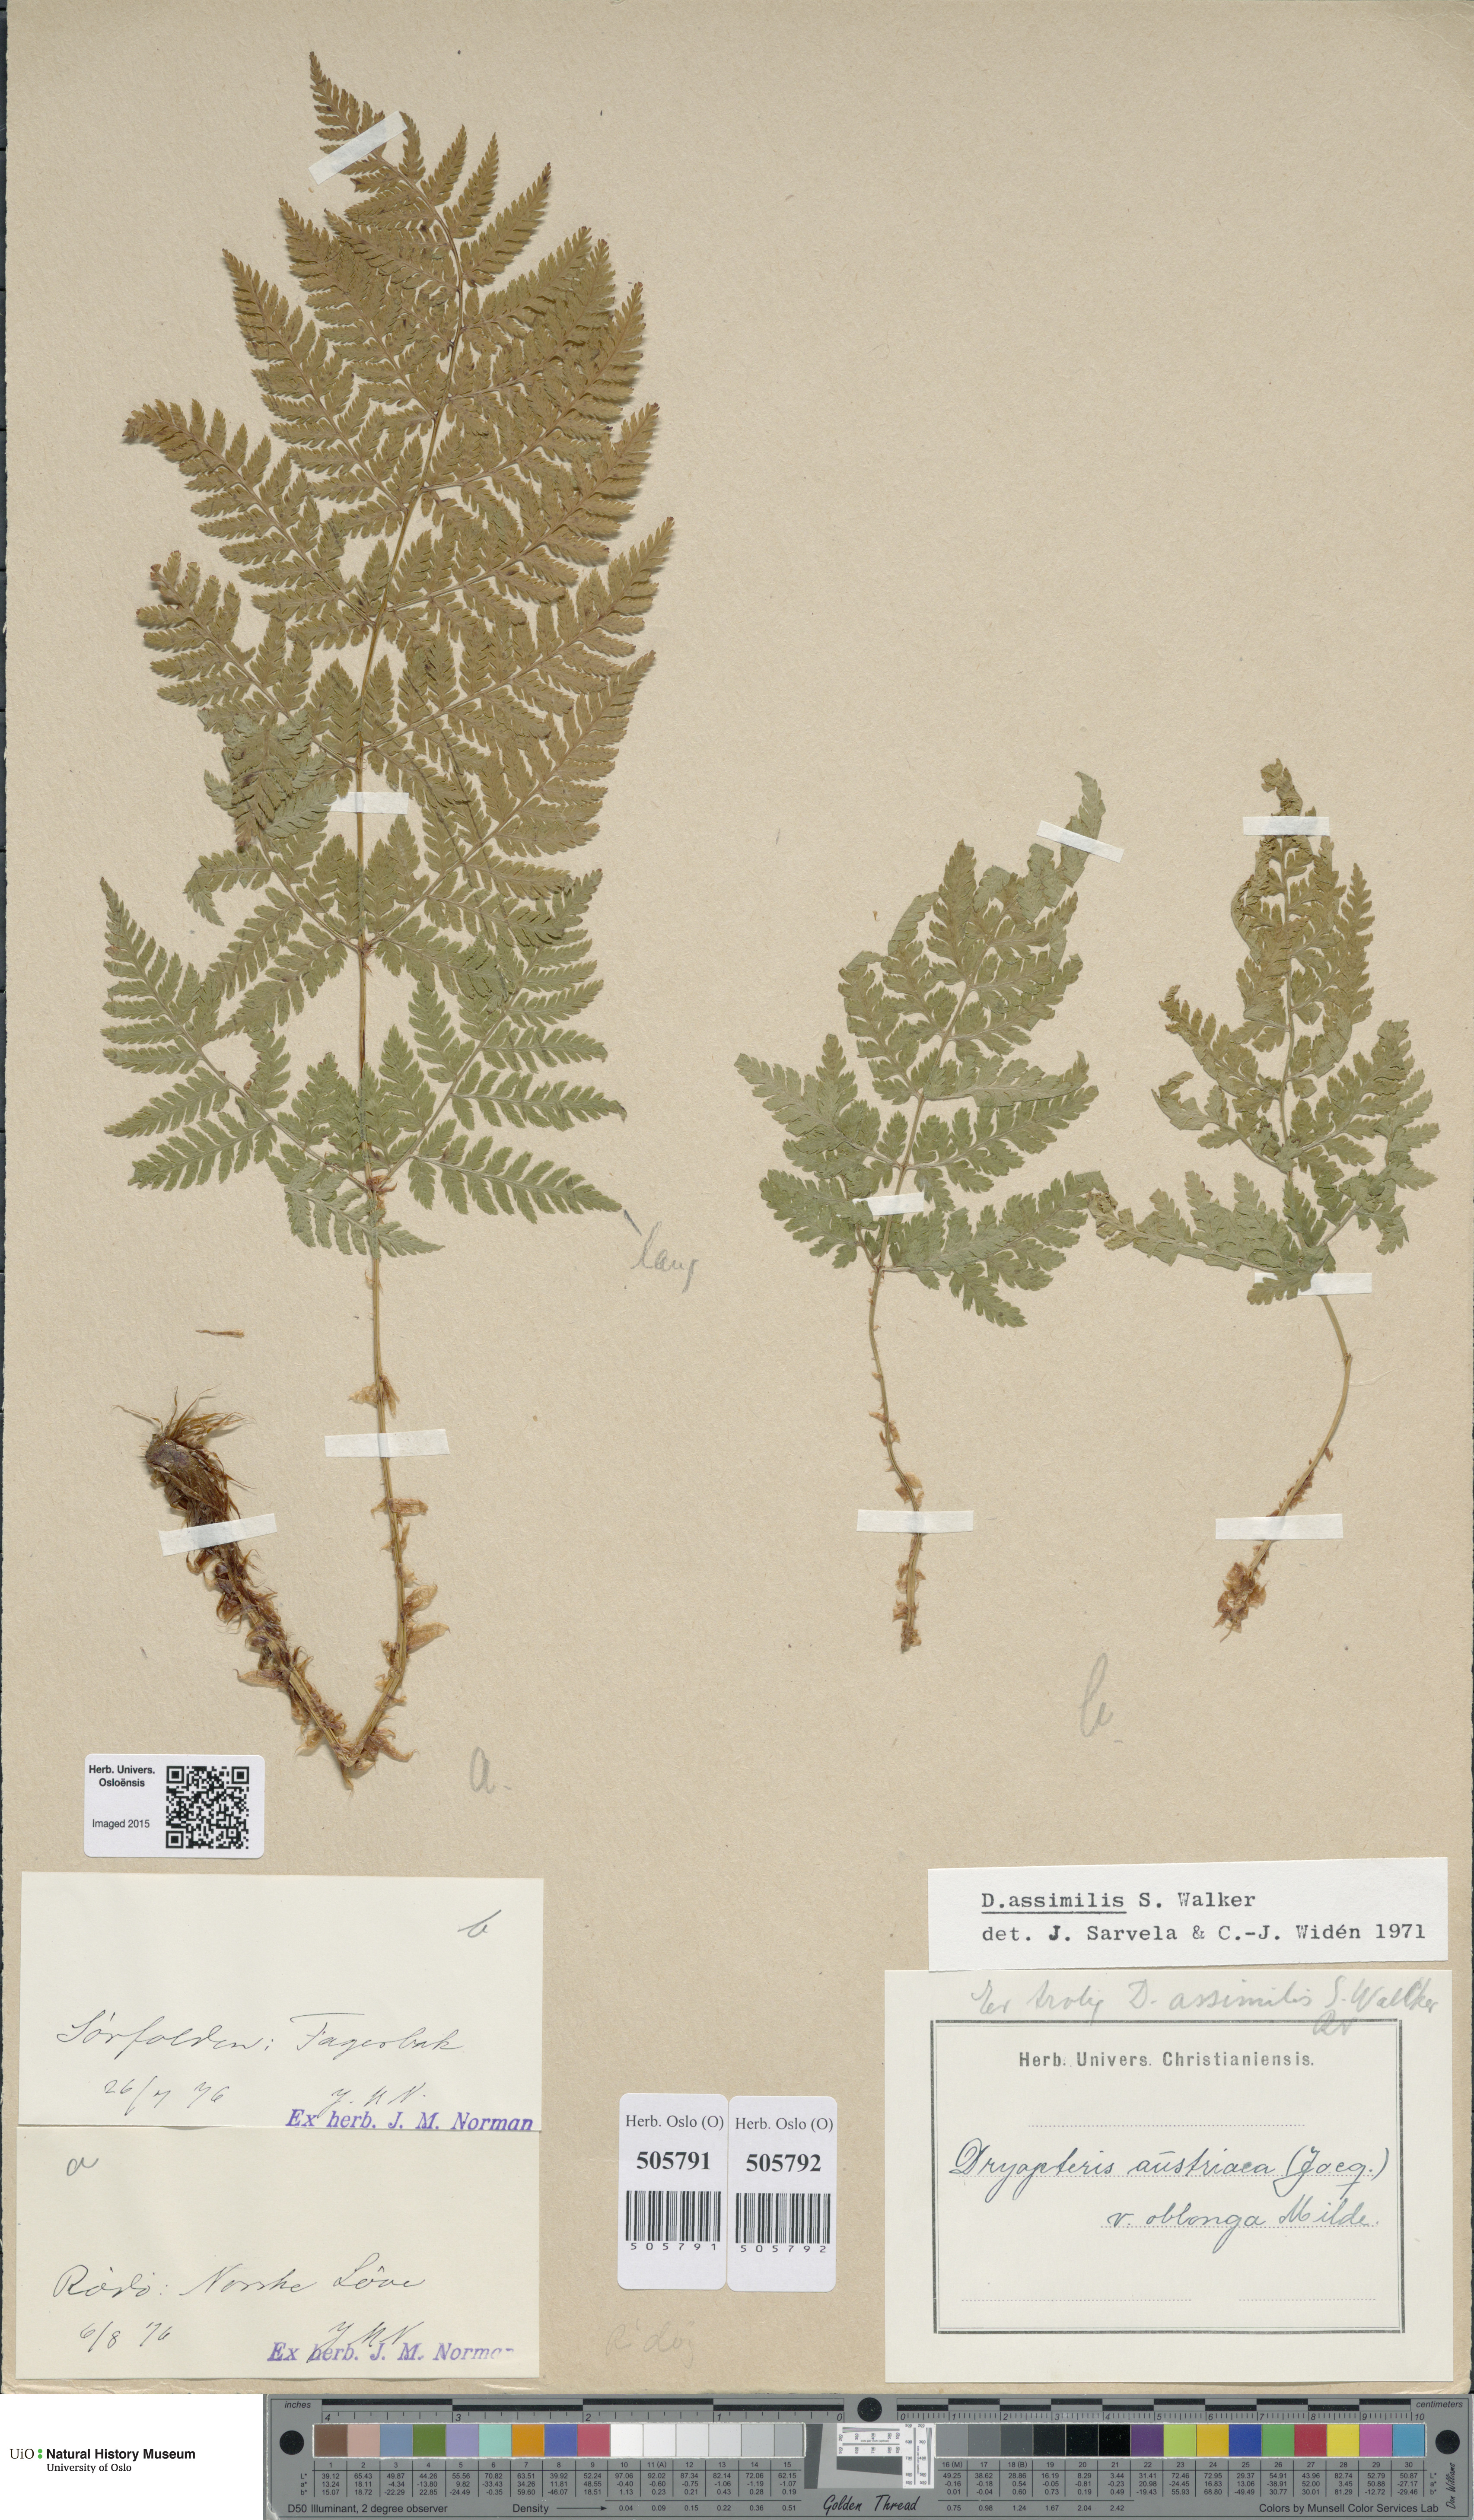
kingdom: Plantae
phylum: Tracheophyta
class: Polypodiopsida
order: Polypodiales
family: Dryopteridaceae
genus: Dryopteris
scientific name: Dryopteris expansa
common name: Northern buckler fern
